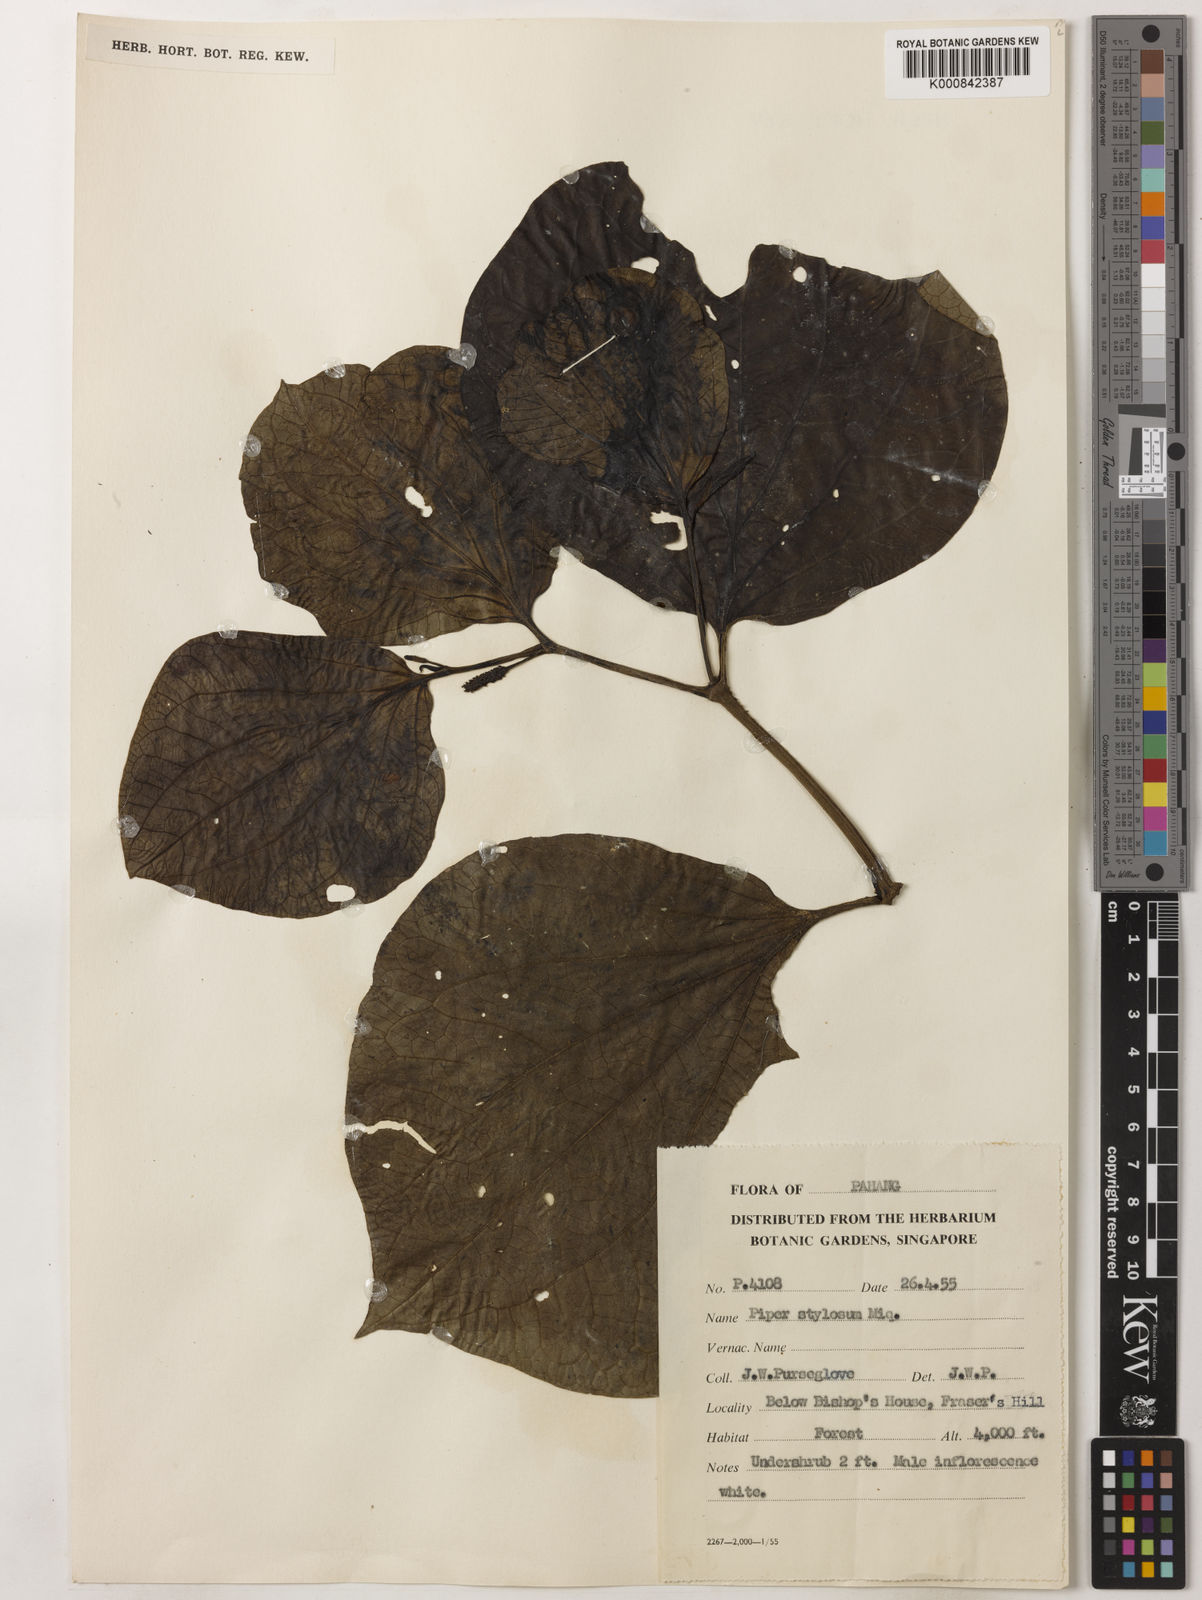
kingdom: Plantae
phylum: Tracheophyta
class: Magnoliopsida
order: Piperales
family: Piperaceae
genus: Piper
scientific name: Piper rostratum
